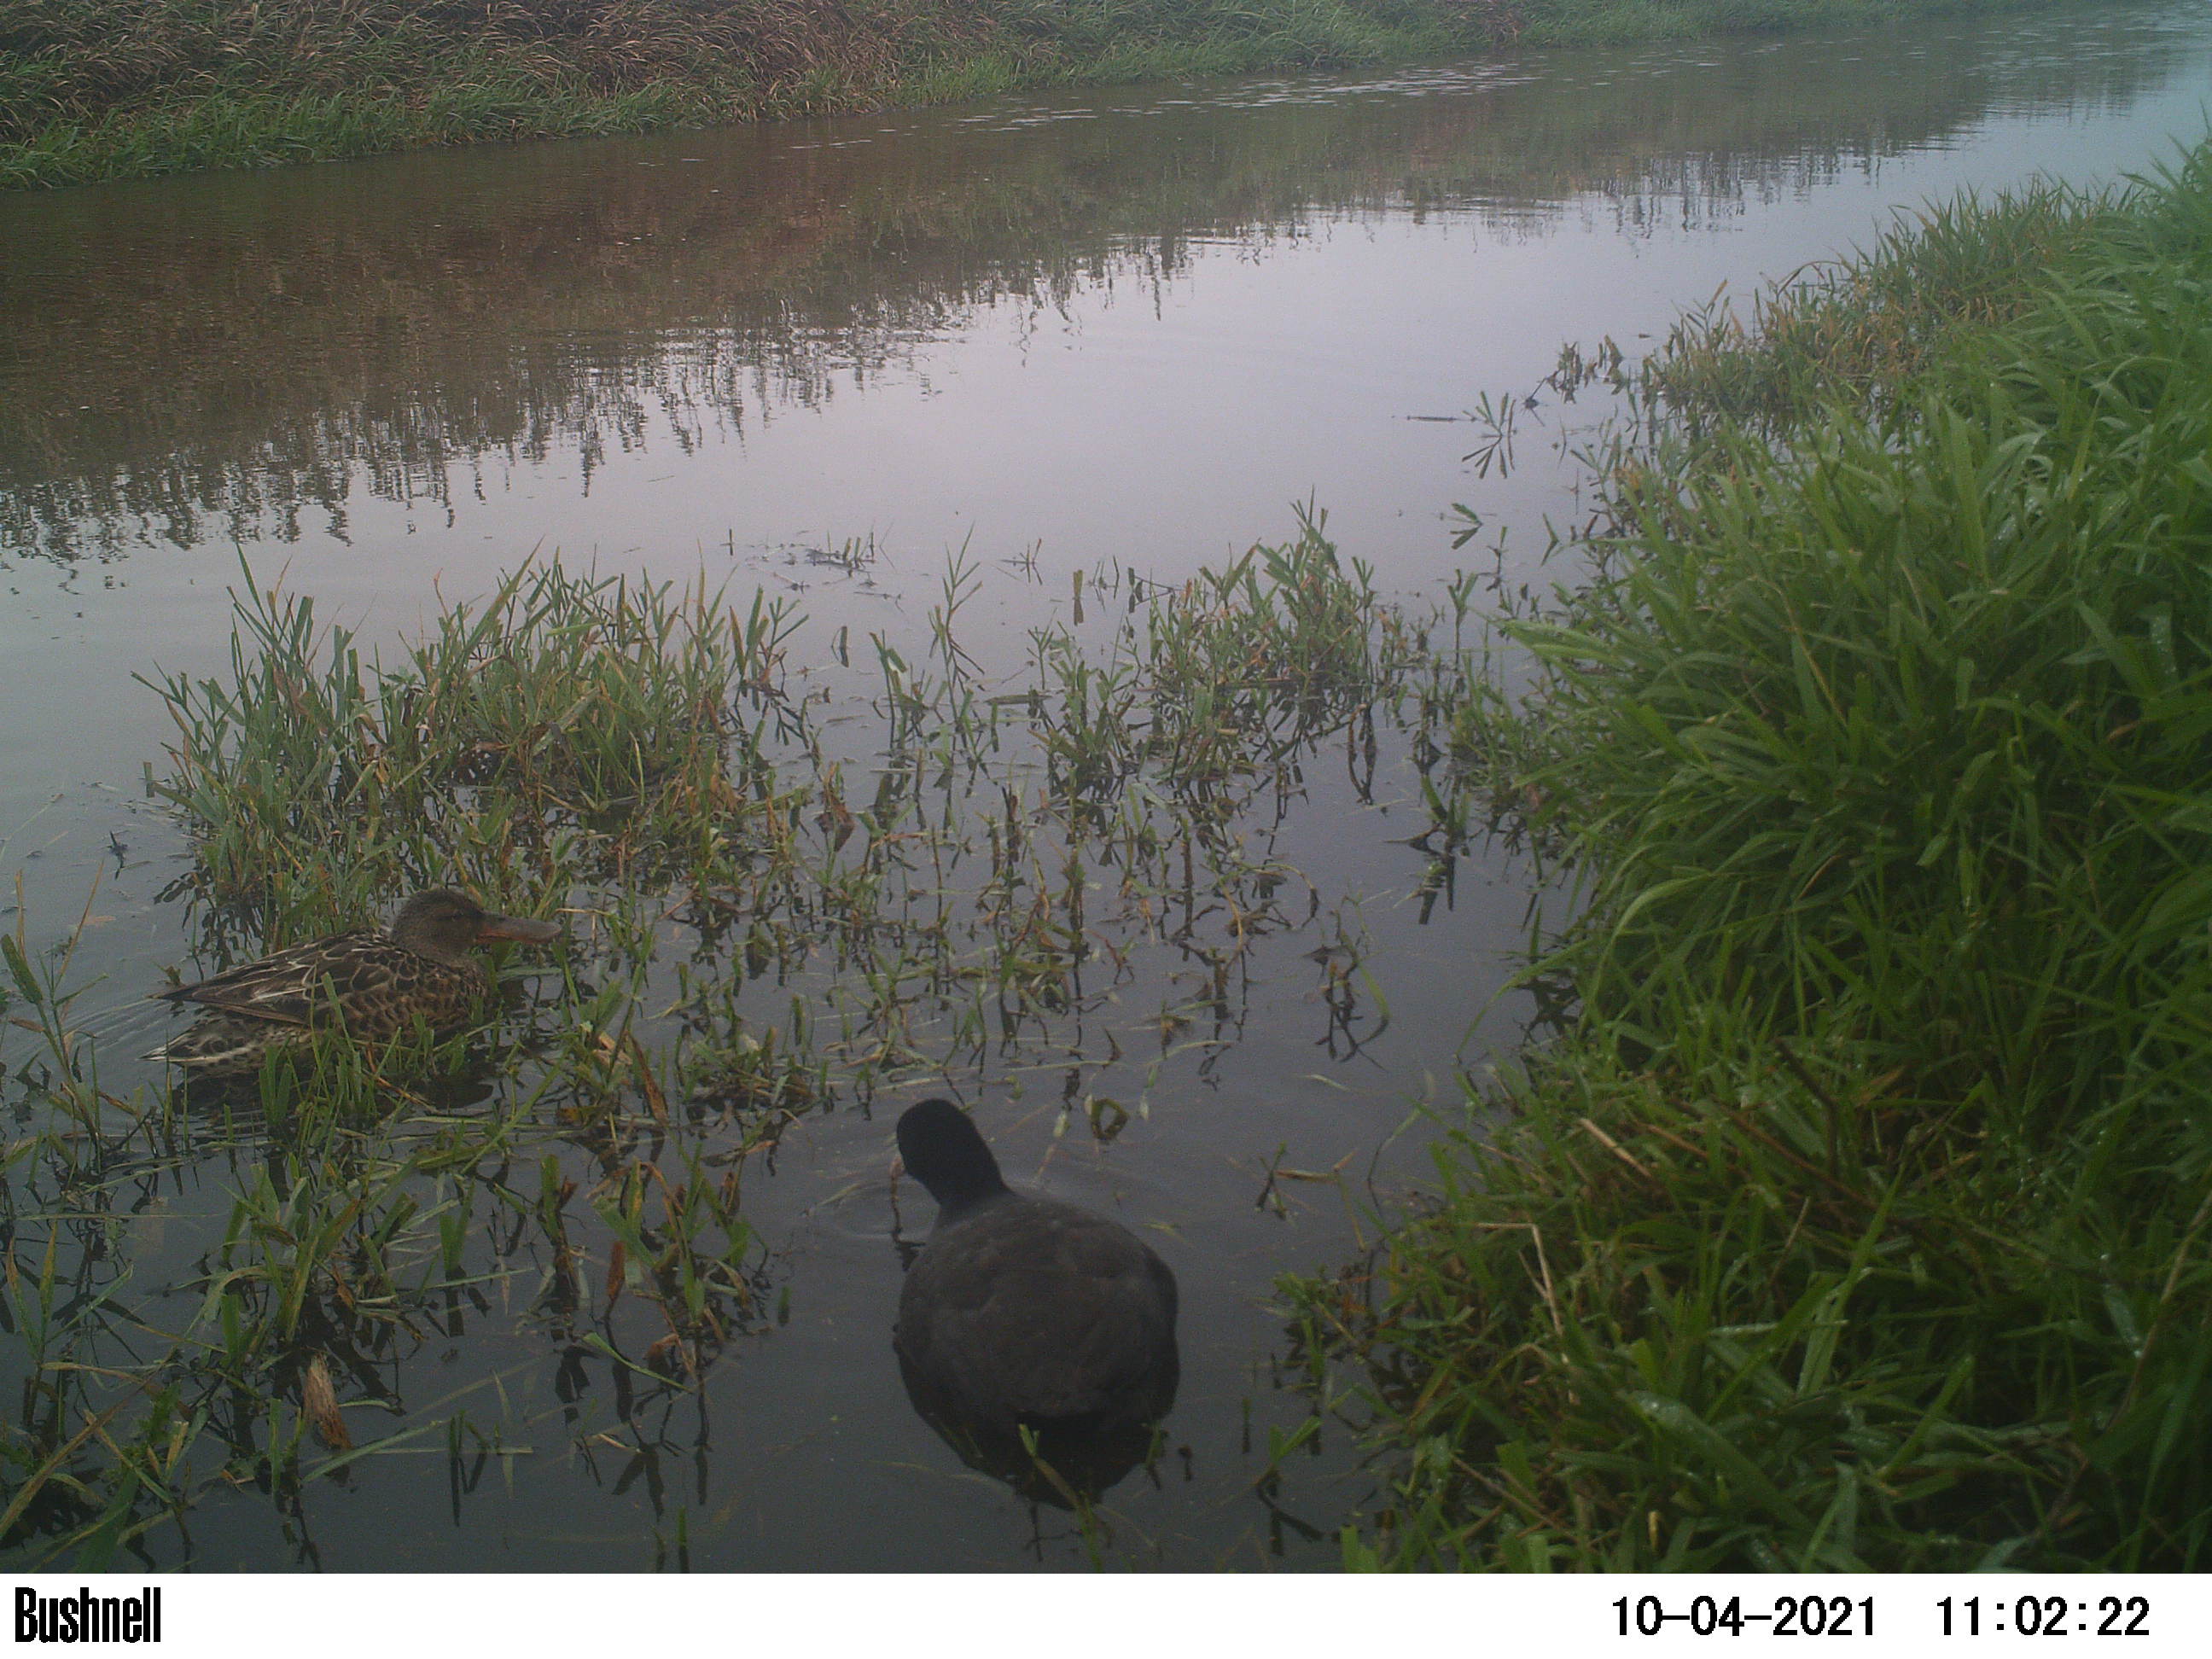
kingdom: Animalia
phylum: Chordata
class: Aves
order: Anseriformes
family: Anatidae
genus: Anas
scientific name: Anas
